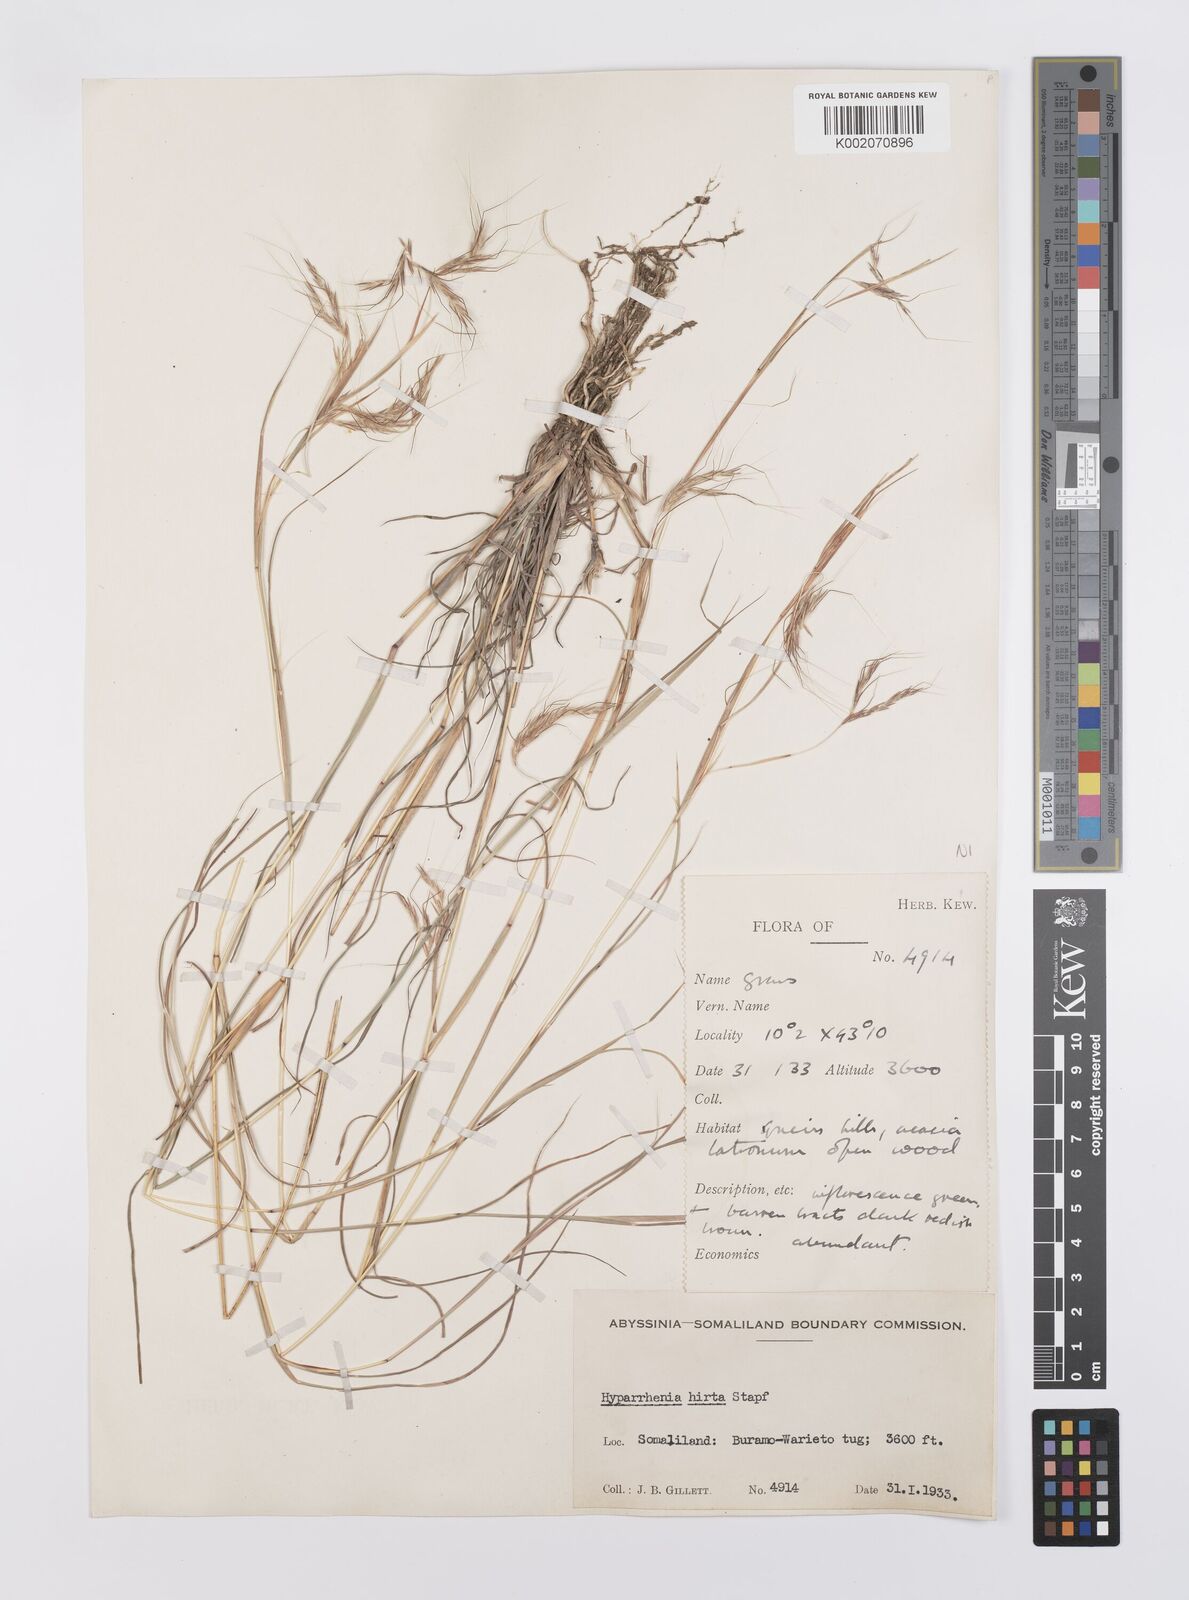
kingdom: Plantae
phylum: Tracheophyta
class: Liliopsida
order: Poales
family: Poaceae
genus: Hyparrhenia
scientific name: Hyparrhenia hirta
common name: Thatching grass
